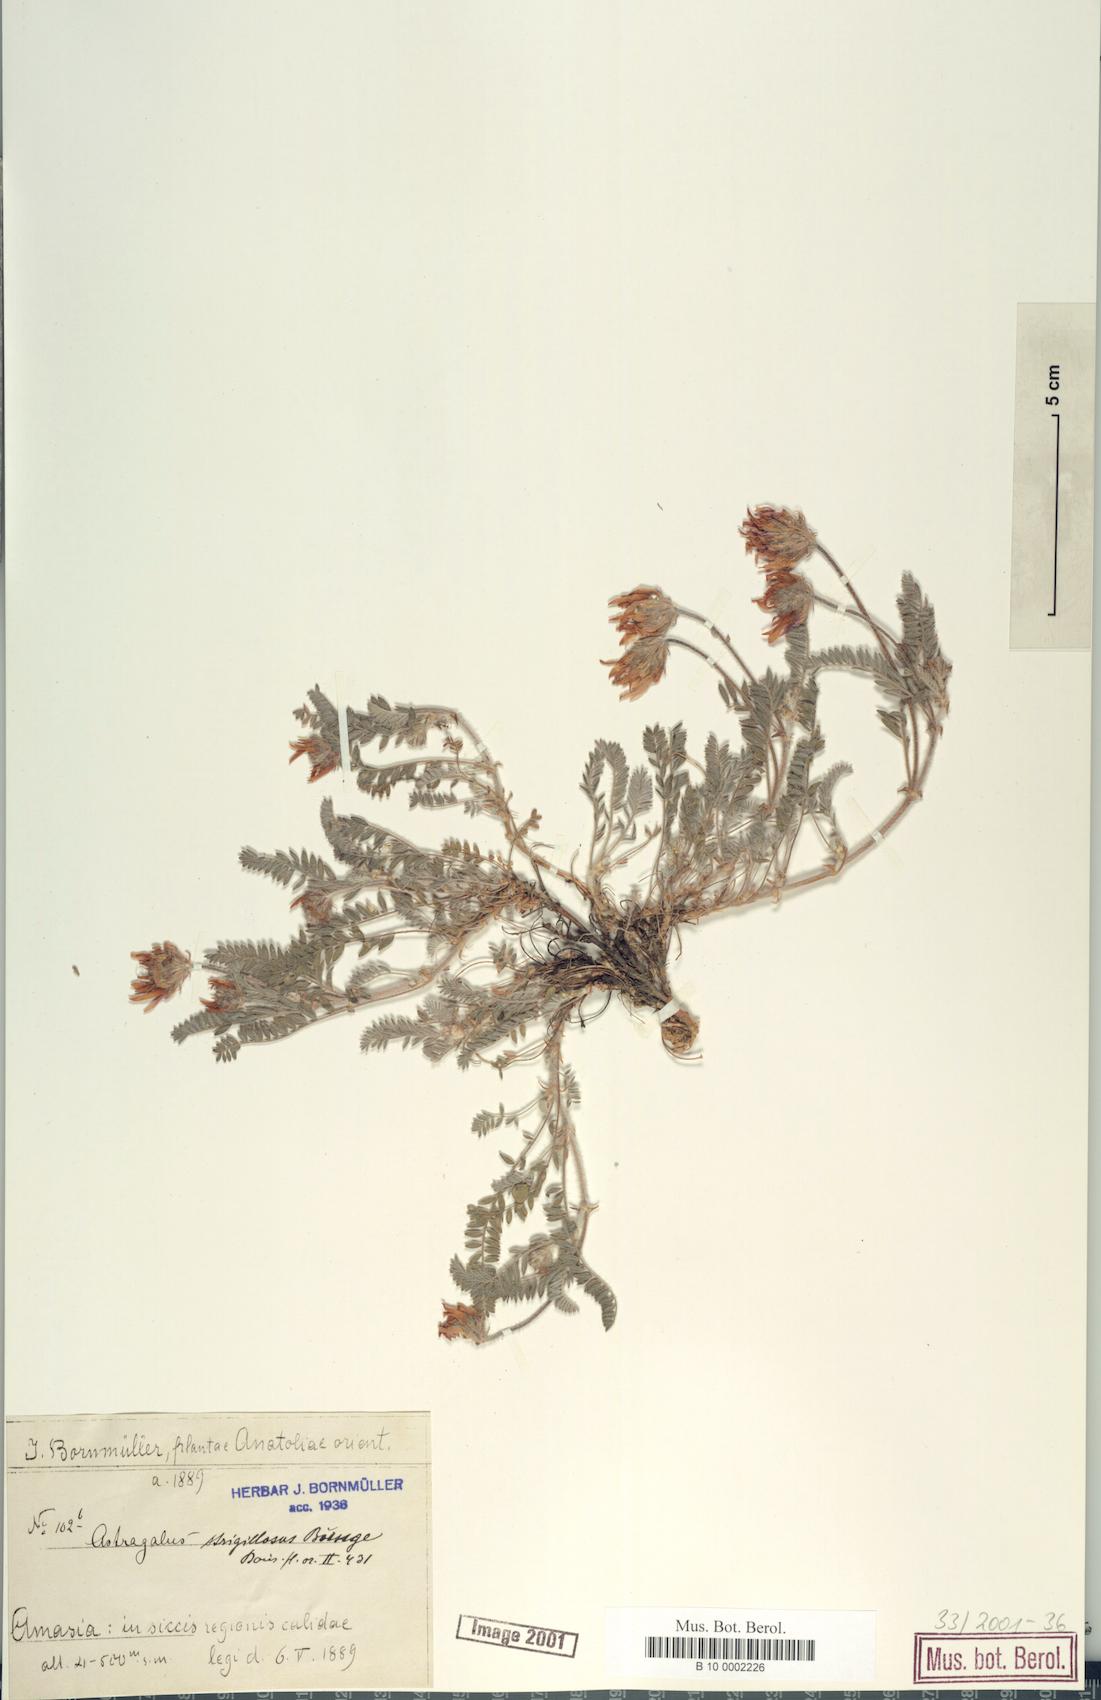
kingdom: Plantae
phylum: Tracheophyta
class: Magnoliopsida
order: Fabales
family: Fabaceae
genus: Astragalus
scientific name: Astragalus strigillosus
